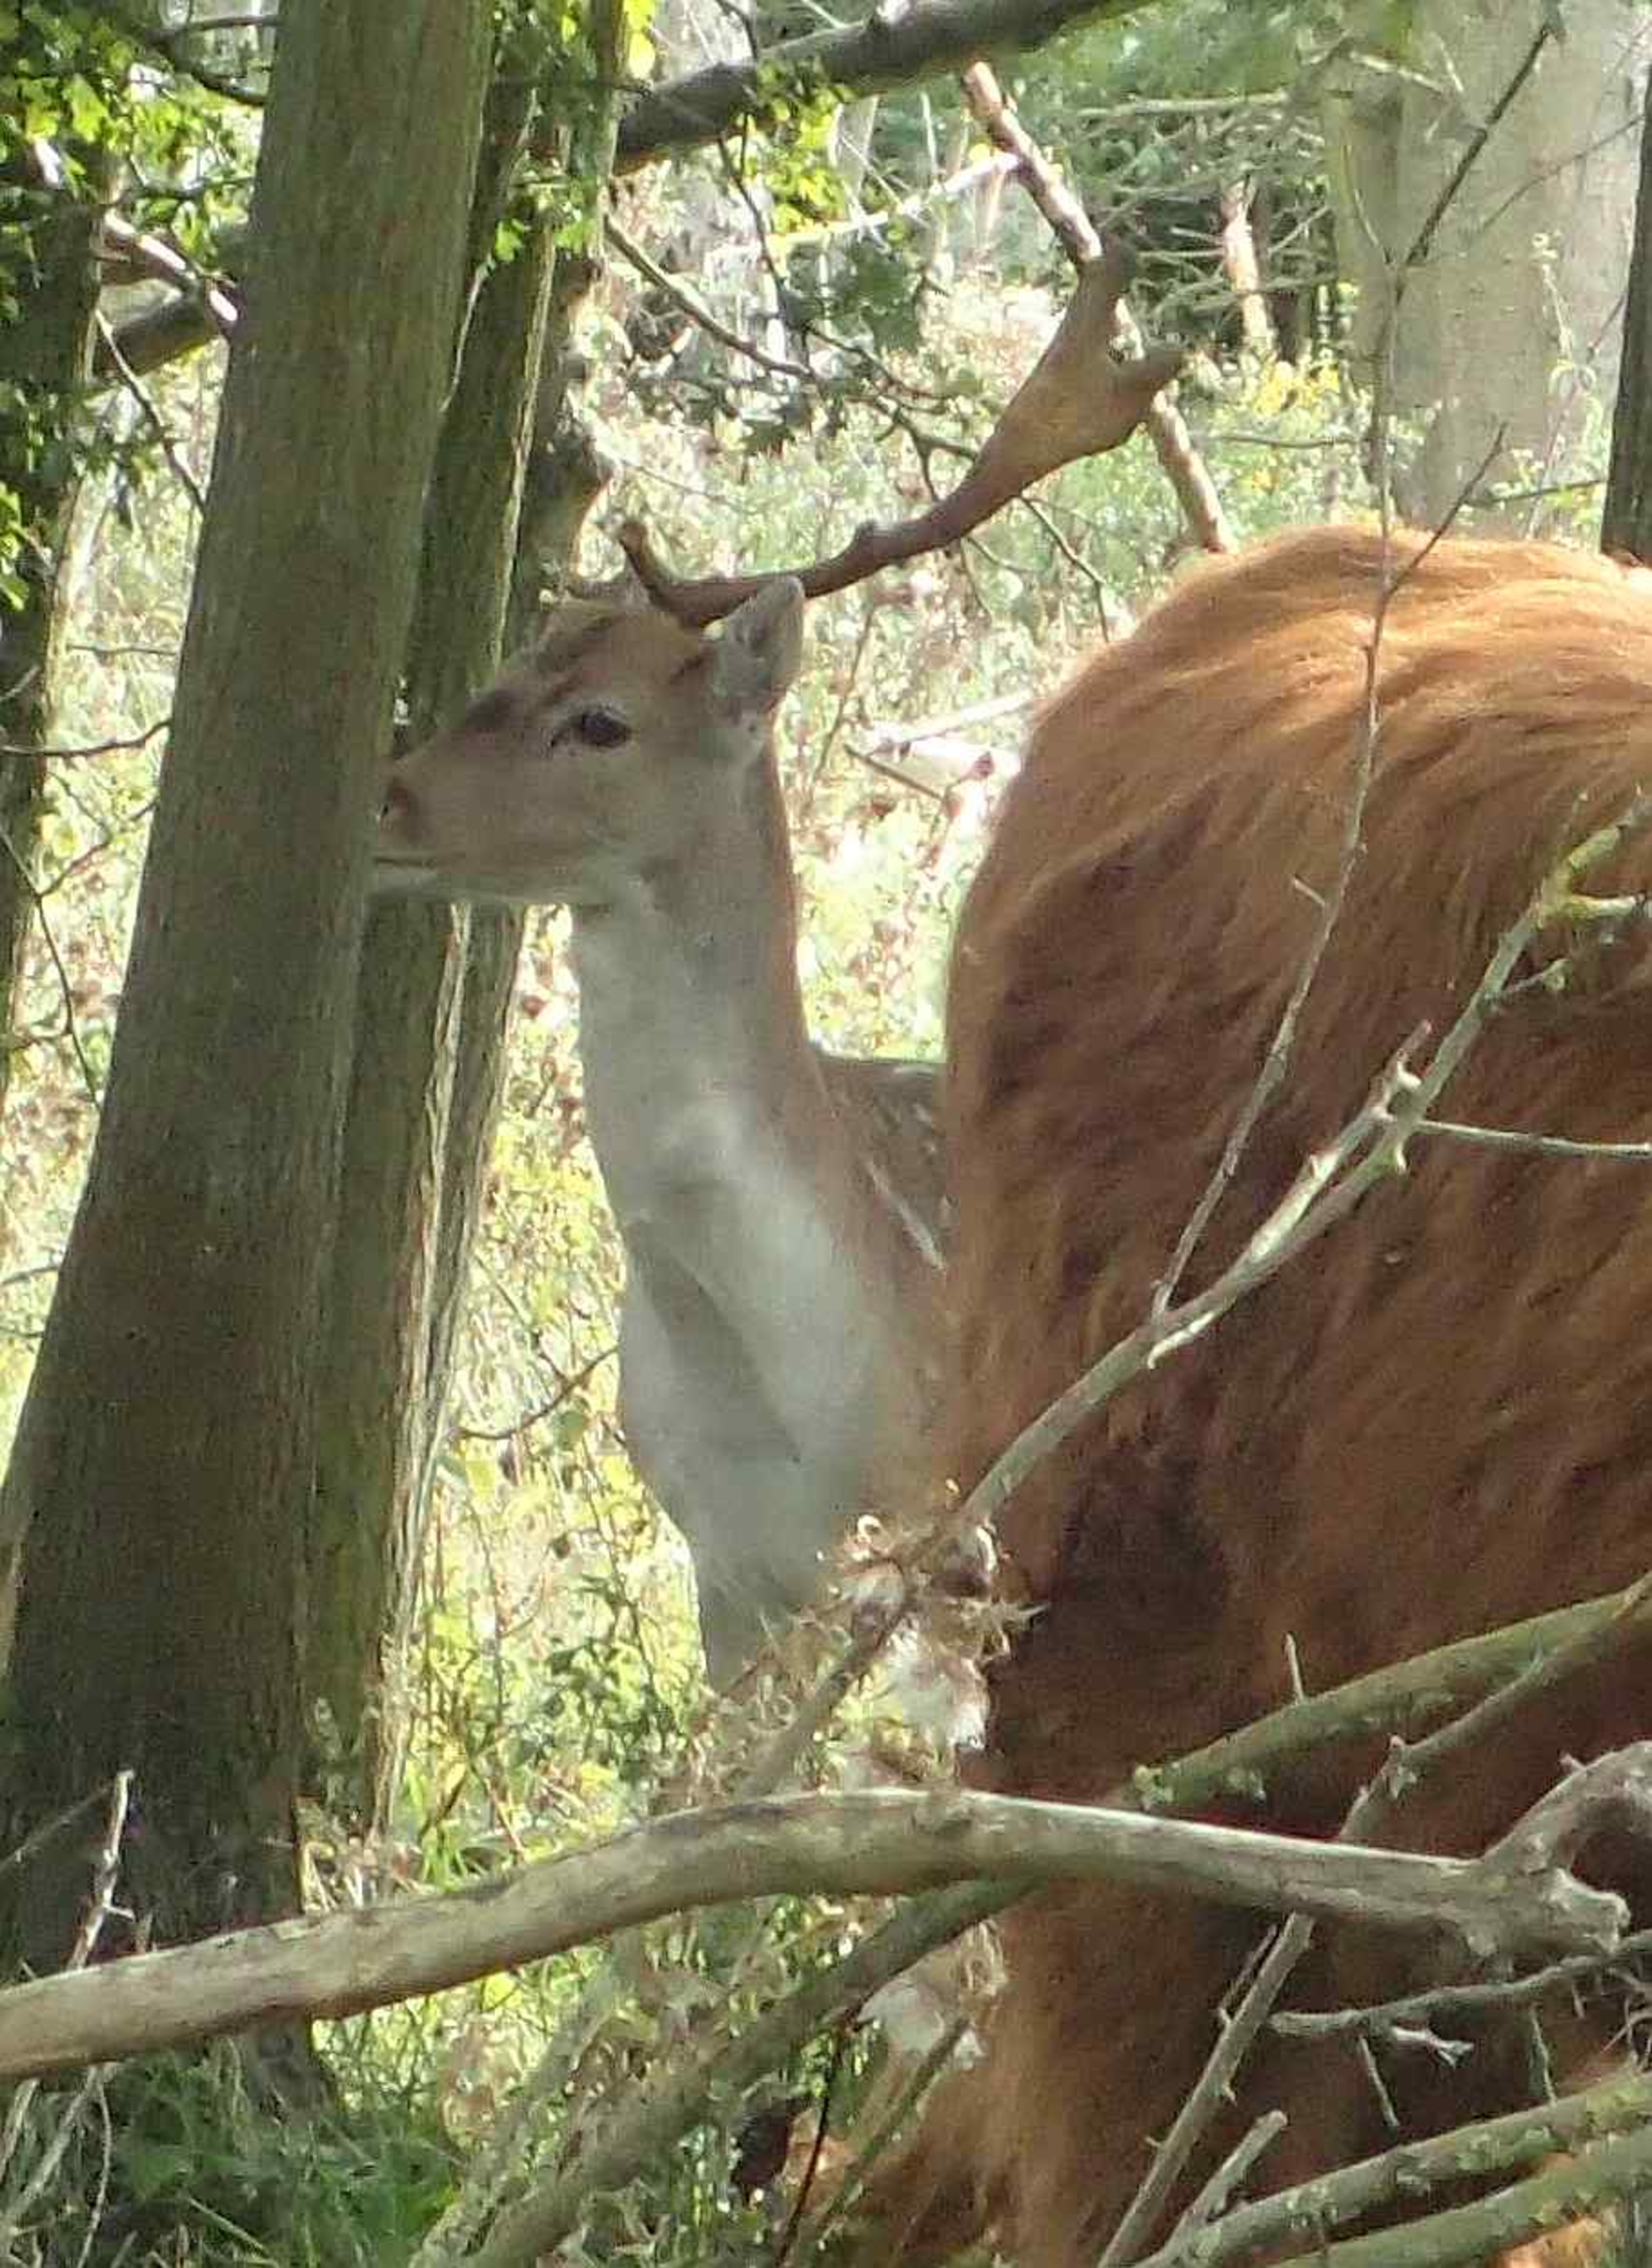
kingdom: Animalia
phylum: Chordata
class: Mammalia
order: Artiodactyla
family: Cervidae
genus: Dama
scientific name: Dama dama
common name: Dådyr
